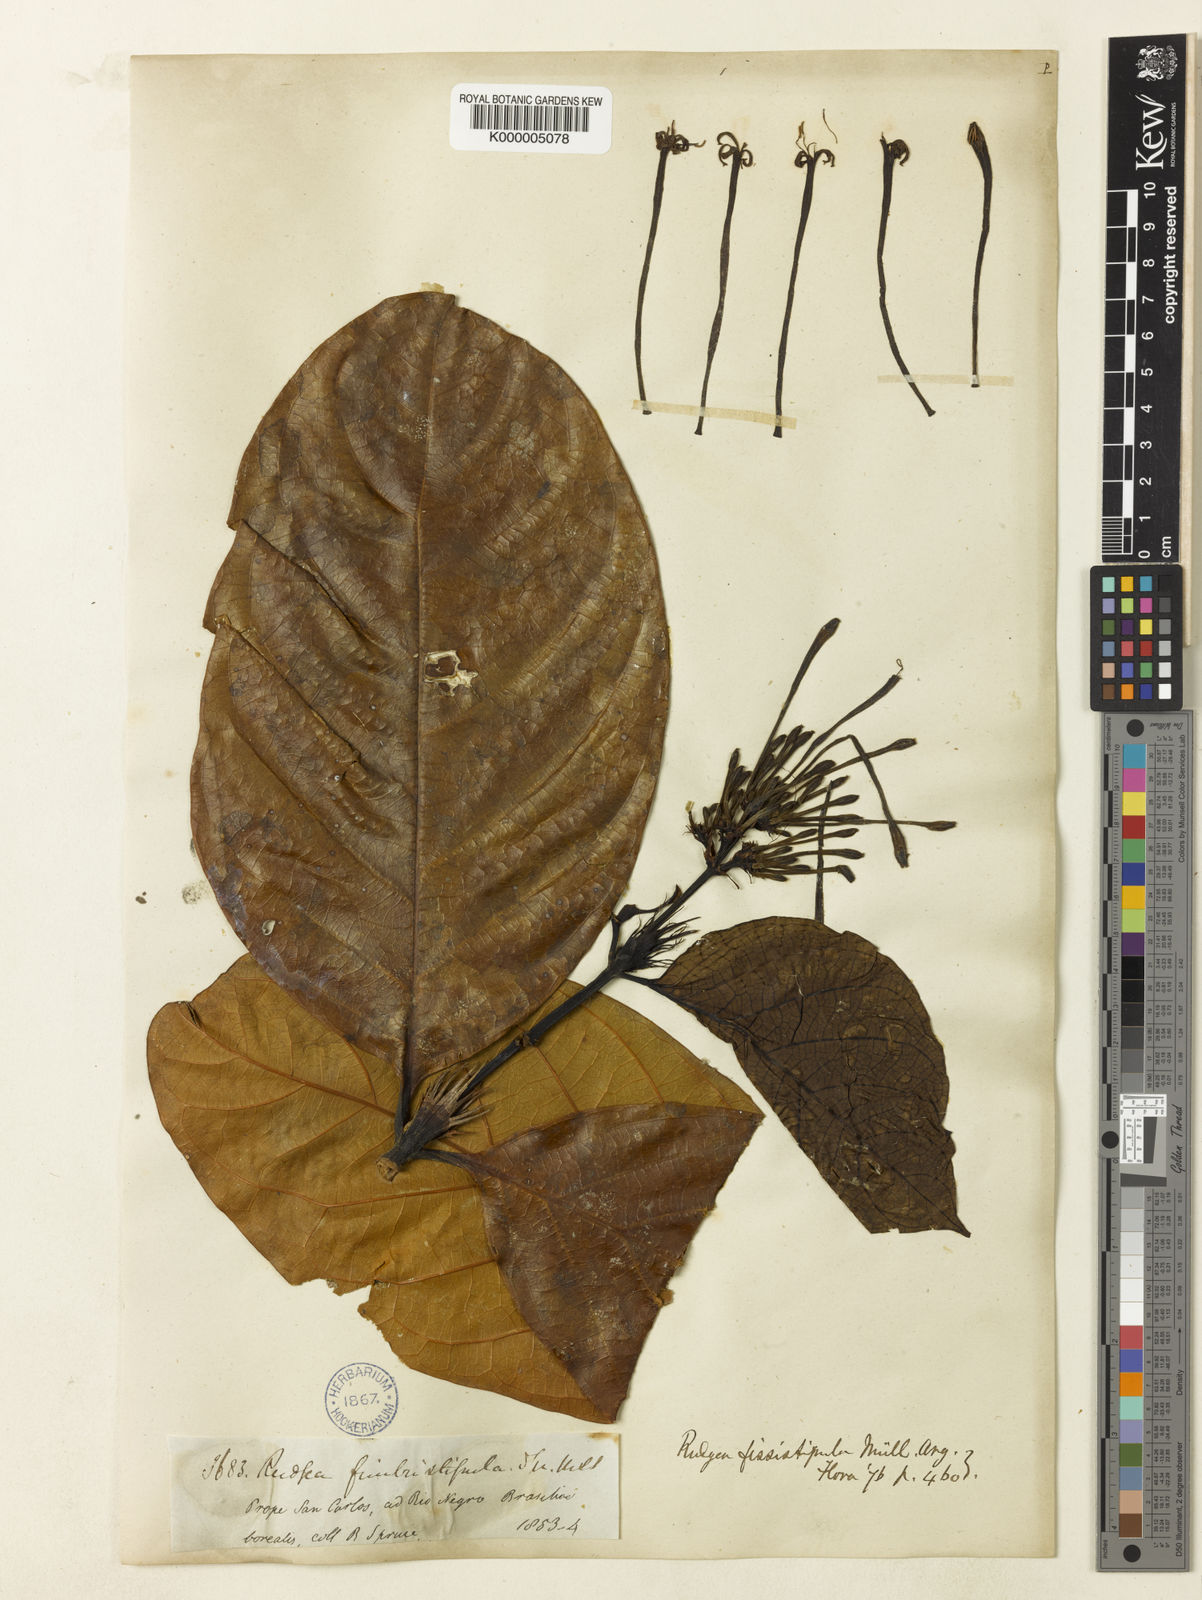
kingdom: Plantae
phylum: Tracheophyta
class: Magnoliopsida
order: Gentianales
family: Rubiaceae
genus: Rudgea
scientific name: Rudgea lanceifolia
